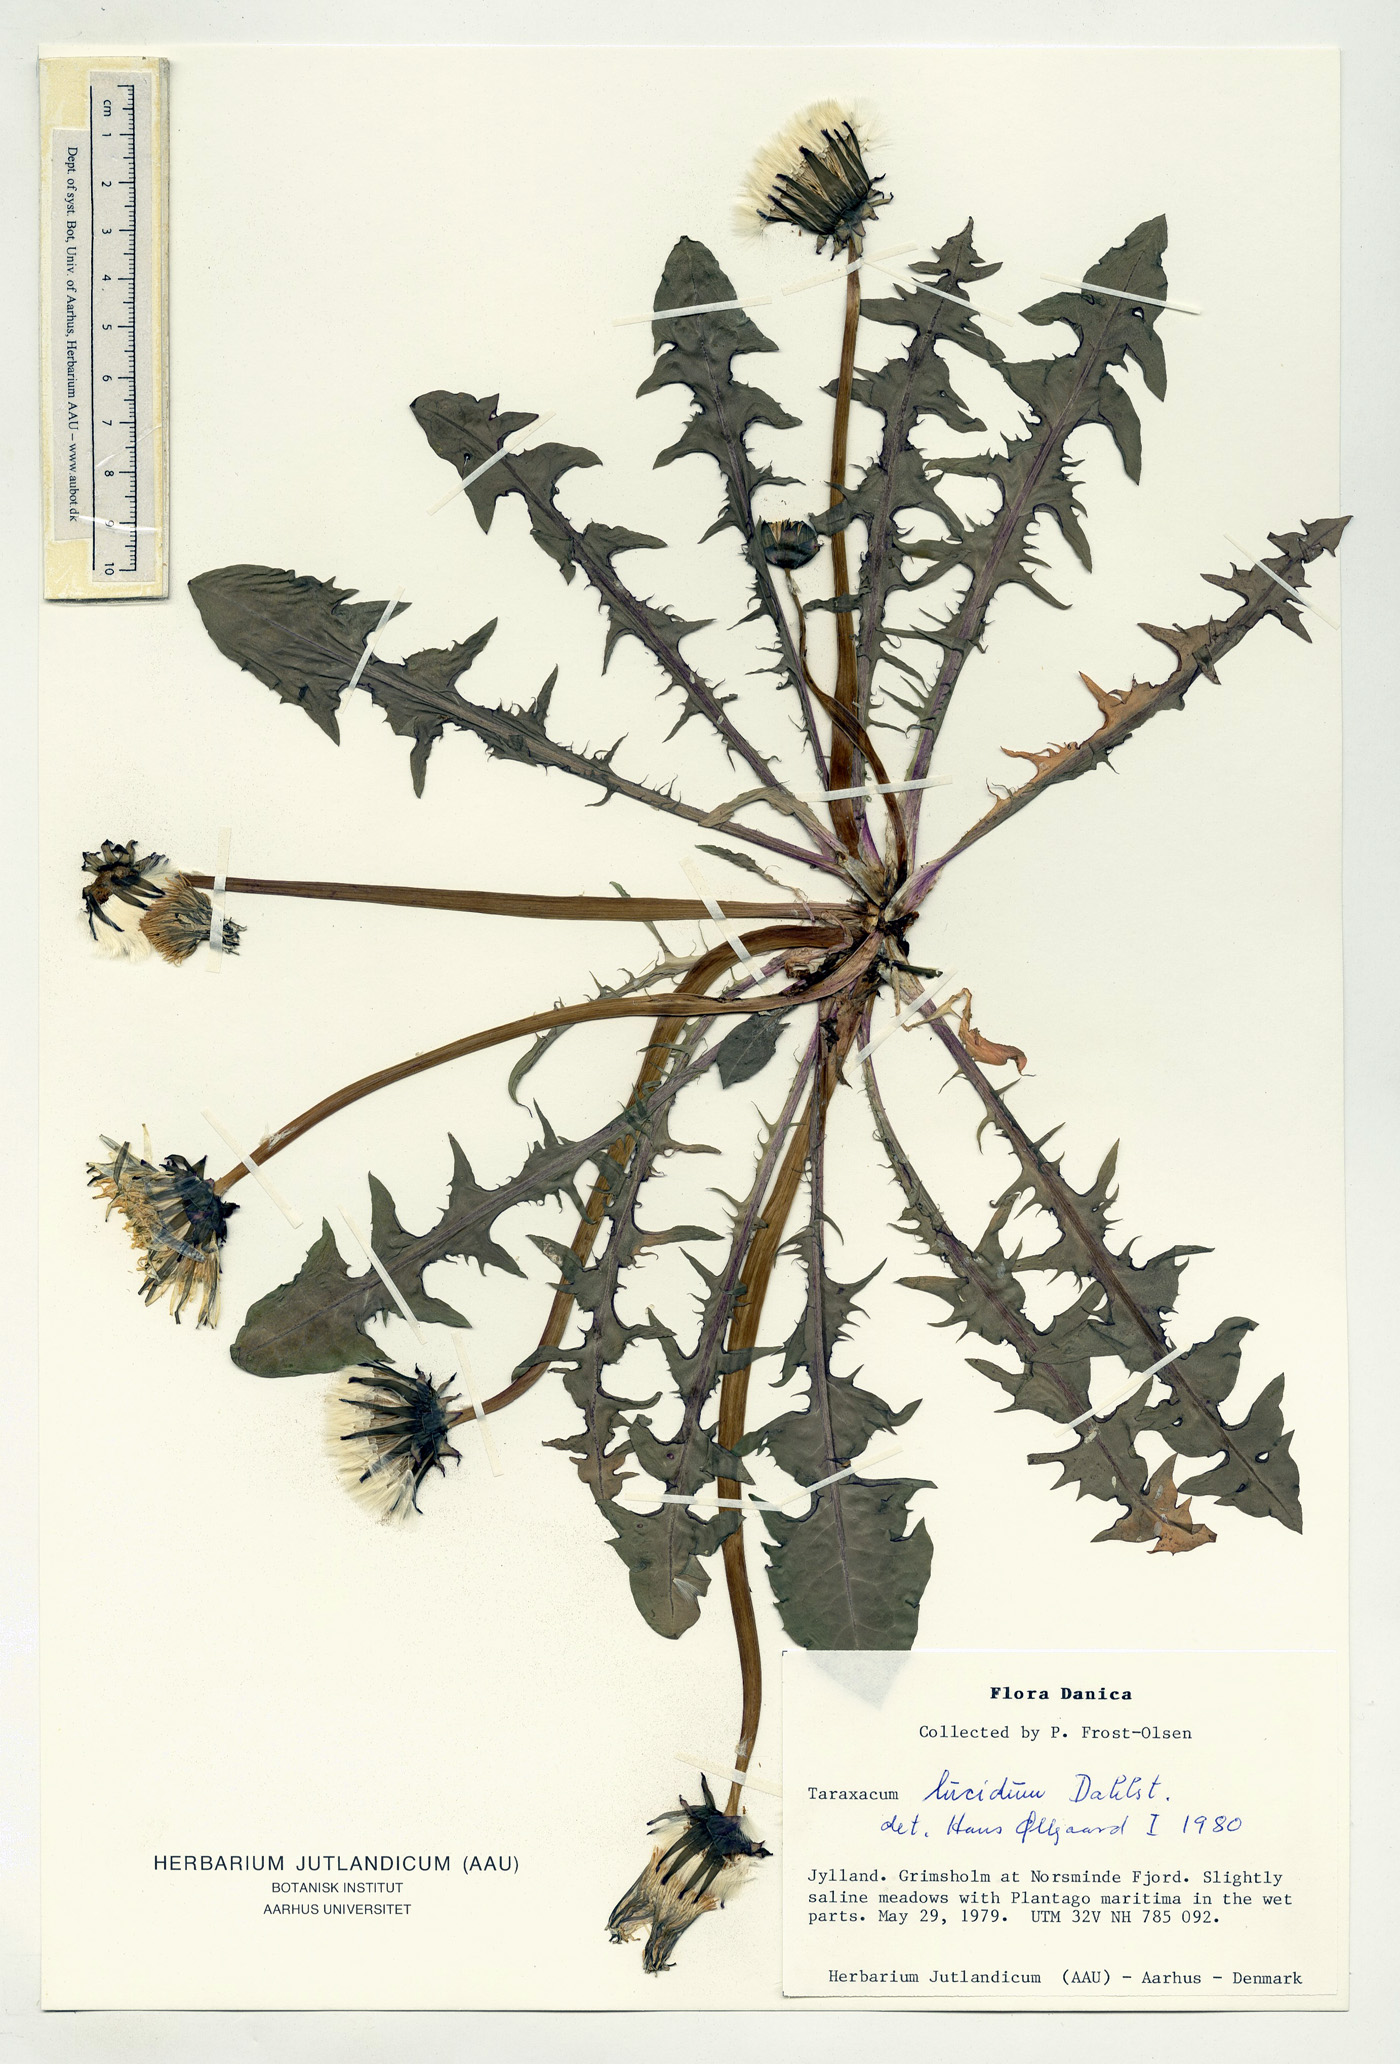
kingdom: Plantae
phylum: Tracheophyta
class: Magnoliopsida
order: Asterales
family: Asteraceae
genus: Taraxacum
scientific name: Taraxacum lucidum
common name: Large-bracted dandelion
